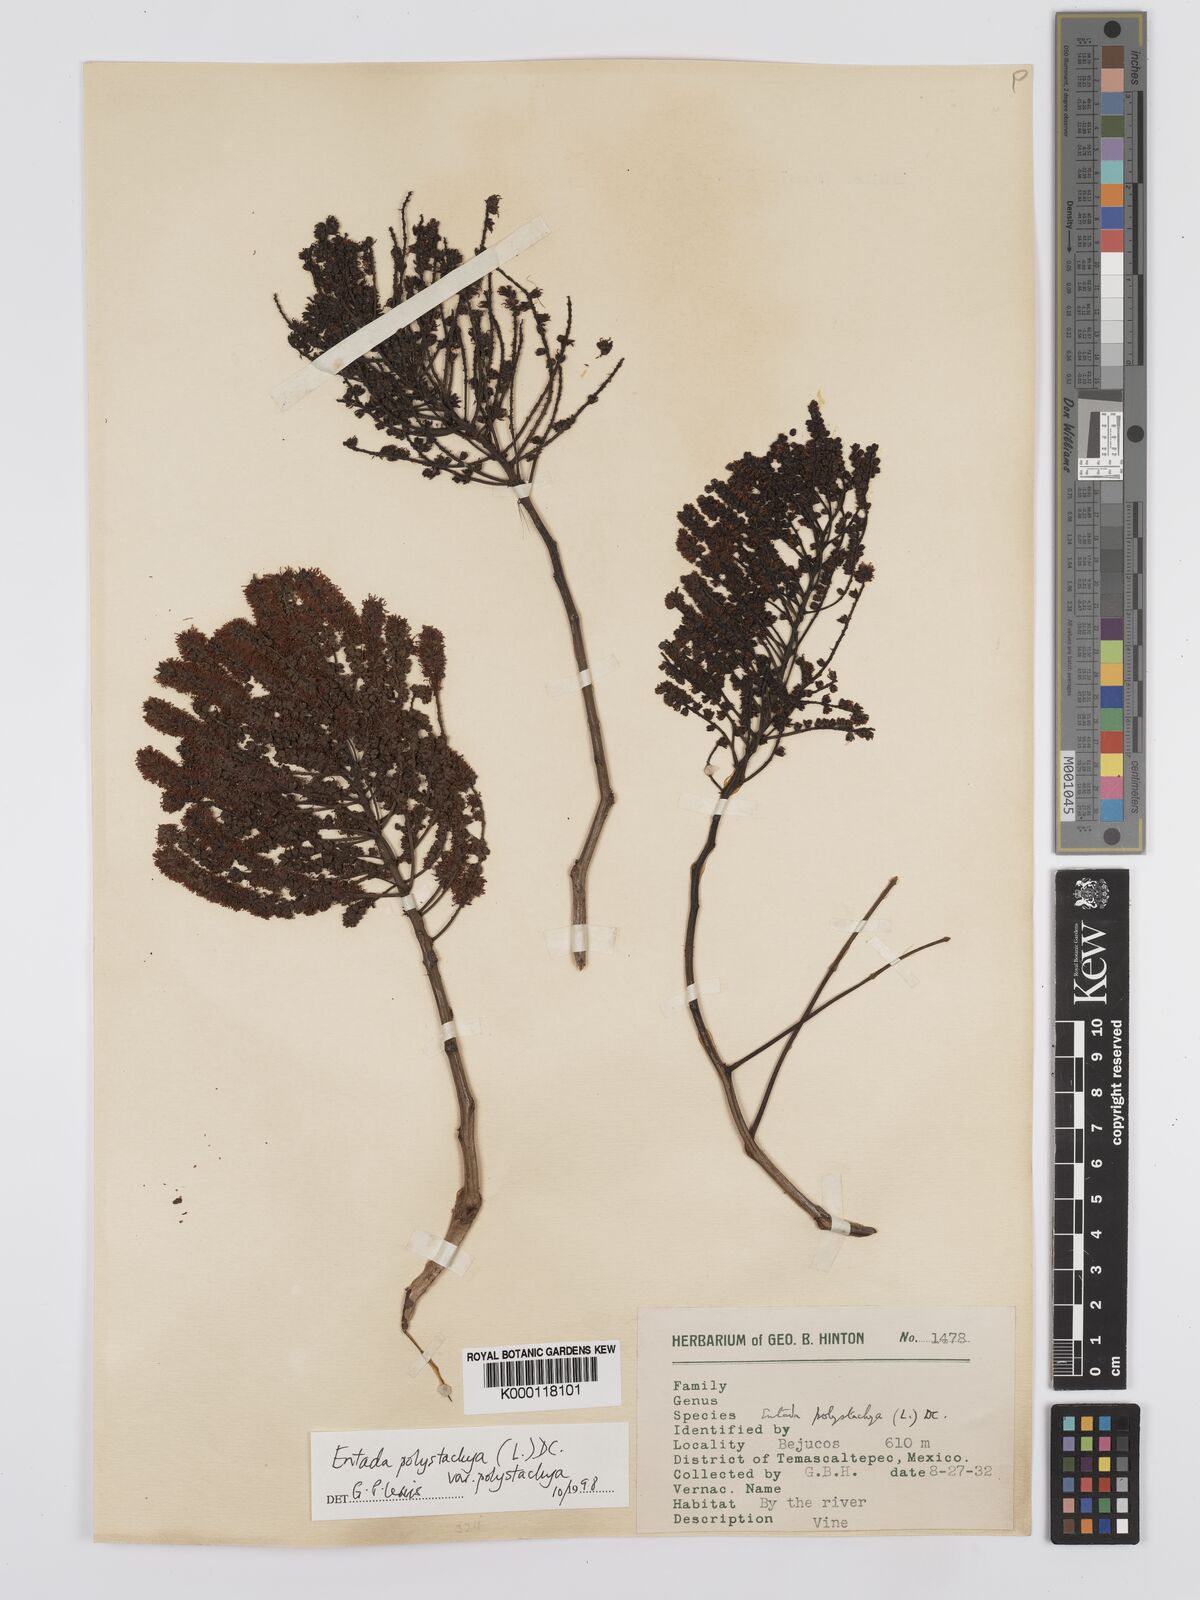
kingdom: Plantae
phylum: Tracheophyta
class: Magnoliopsida
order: Fabales
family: Fabaceae
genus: Entada
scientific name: Entada polystachya
